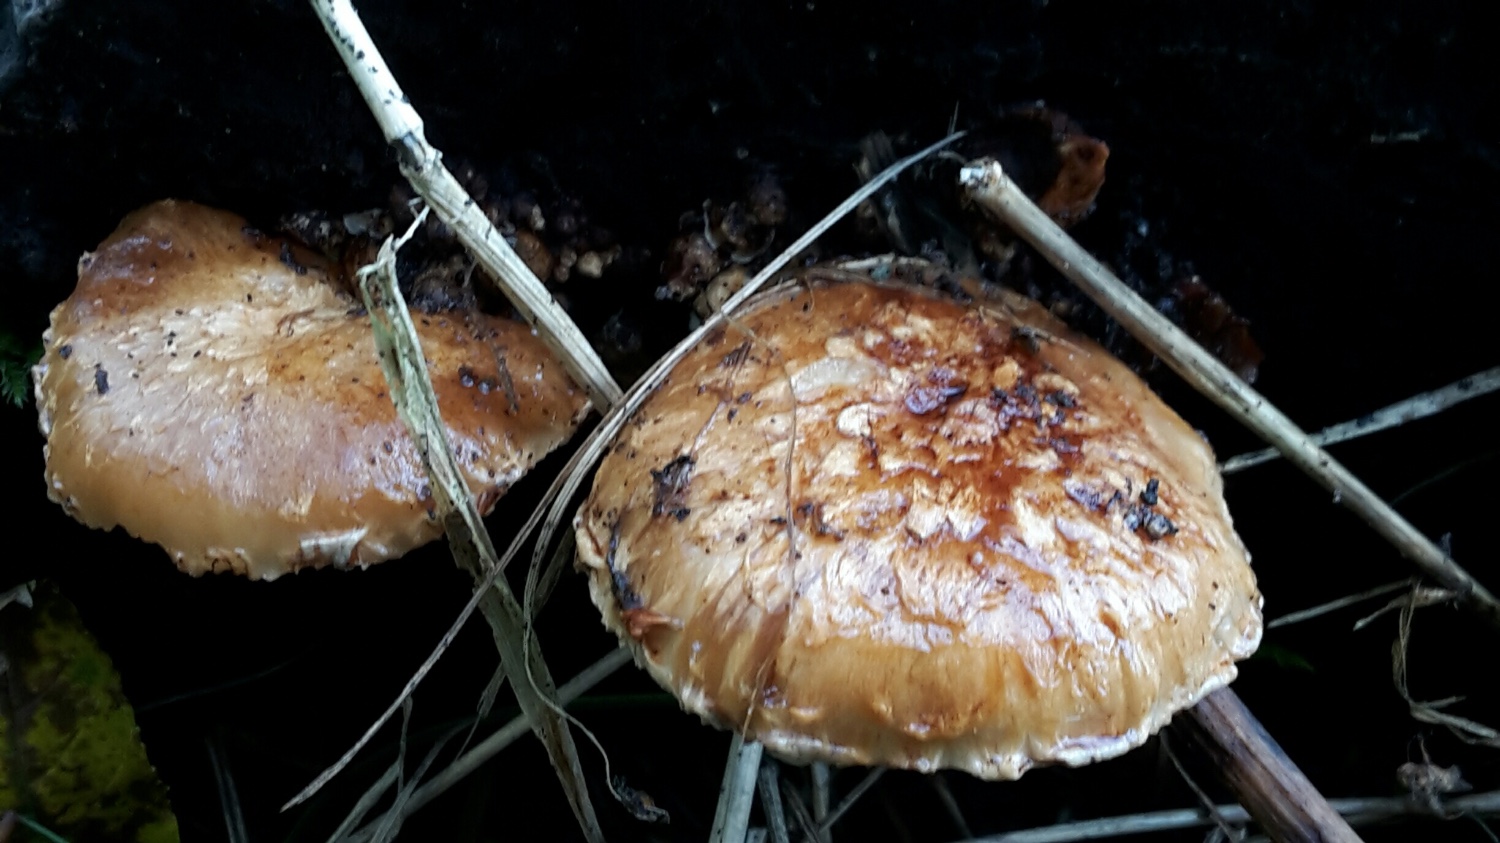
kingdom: Fungi
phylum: Basidiomycota
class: Agaricomycetes
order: Agaricales
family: Strophariaceae
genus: Pholiota
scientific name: Pholiota populnea
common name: poppel-kæmpeskælhat
